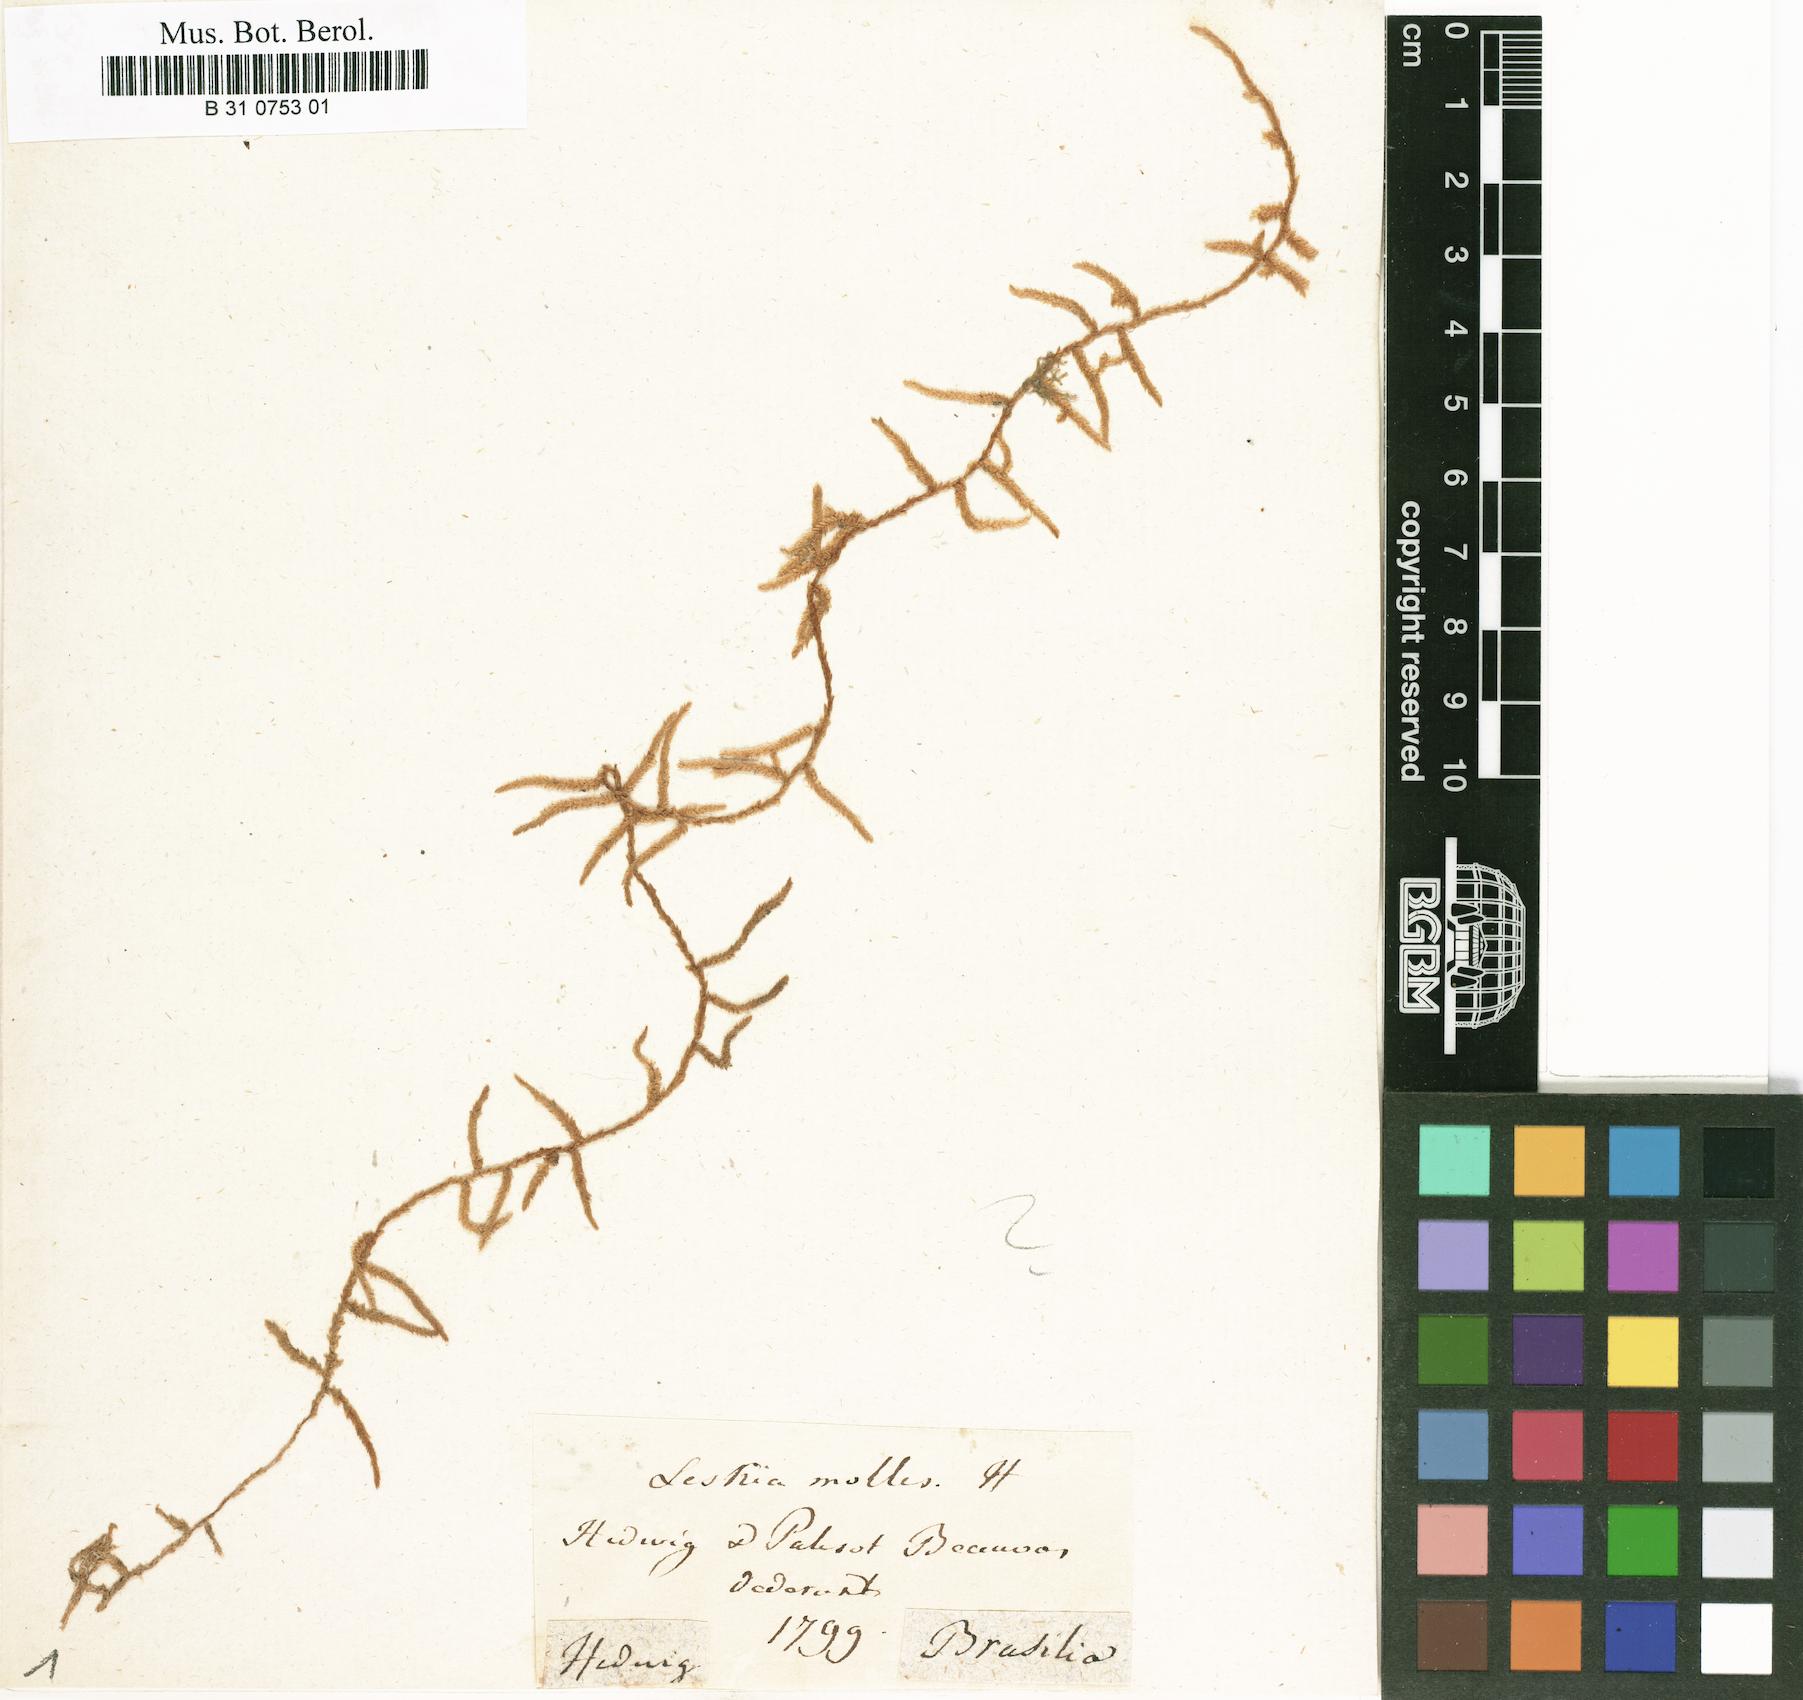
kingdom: Plantae
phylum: Bryophyta
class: Bryopsida
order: Hypnales
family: Lembophyllaceae
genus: Weymouthia
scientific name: Weymouthia mollis
